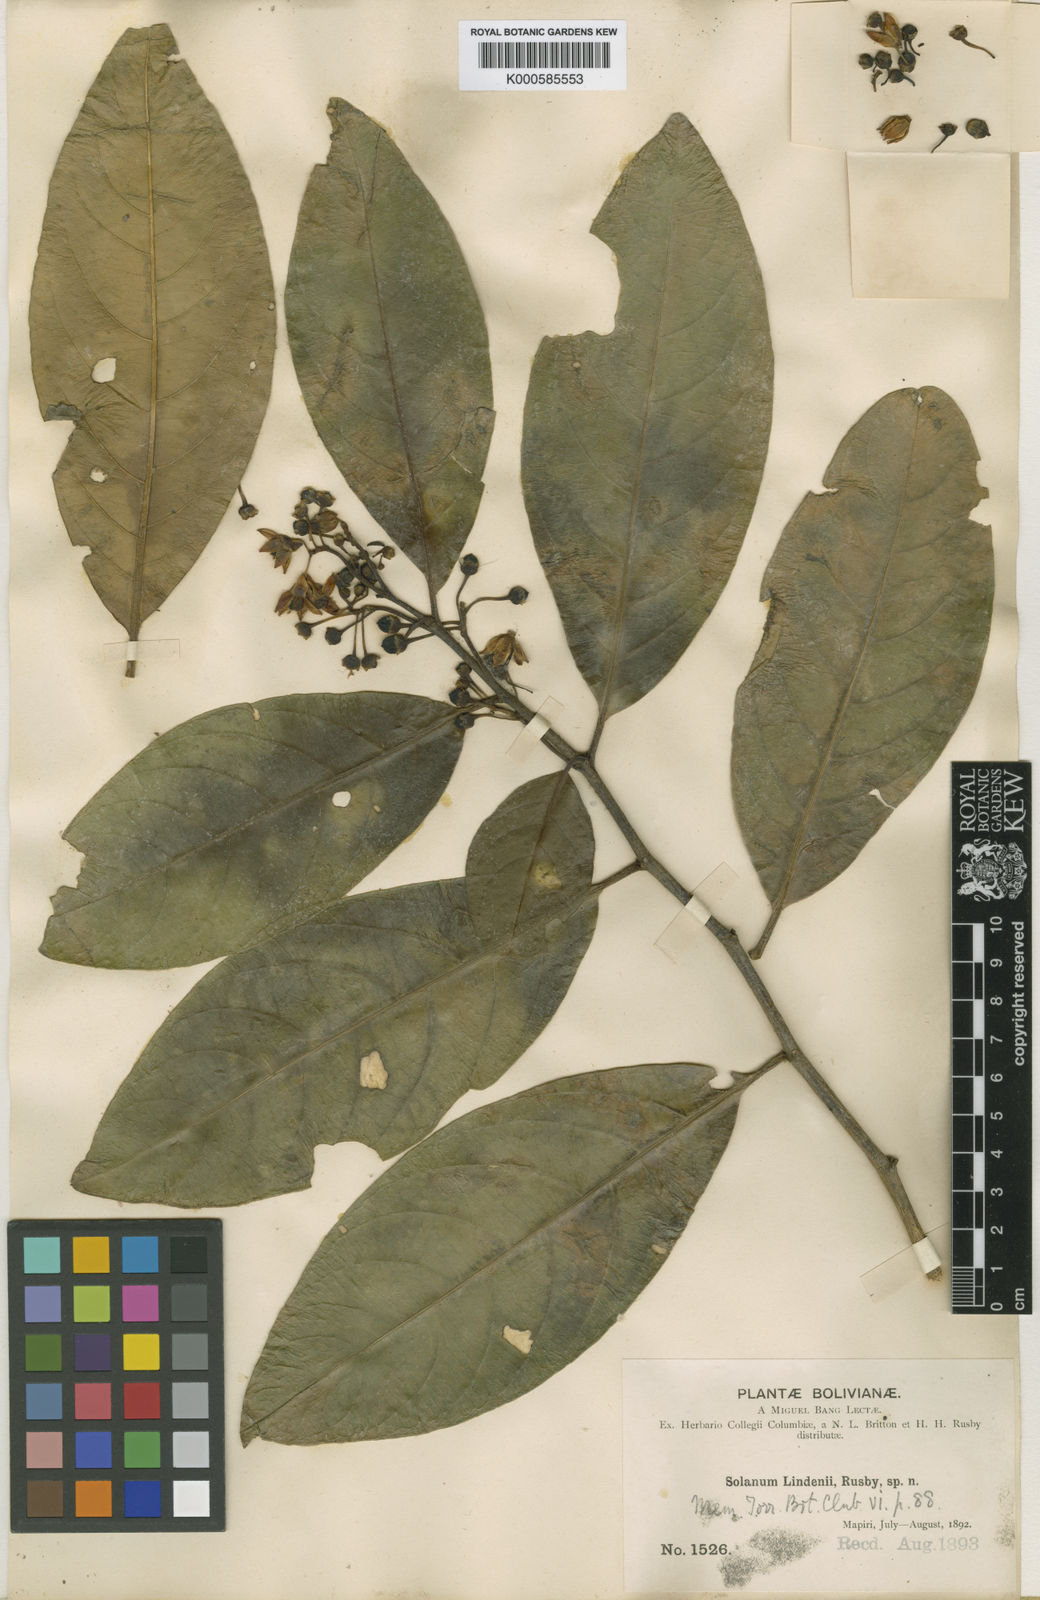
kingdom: Plantae
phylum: Tracheophyta
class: Magnoliopsida
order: Solanales
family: Solanaceae
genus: Solanum
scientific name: Solanum lindenii
